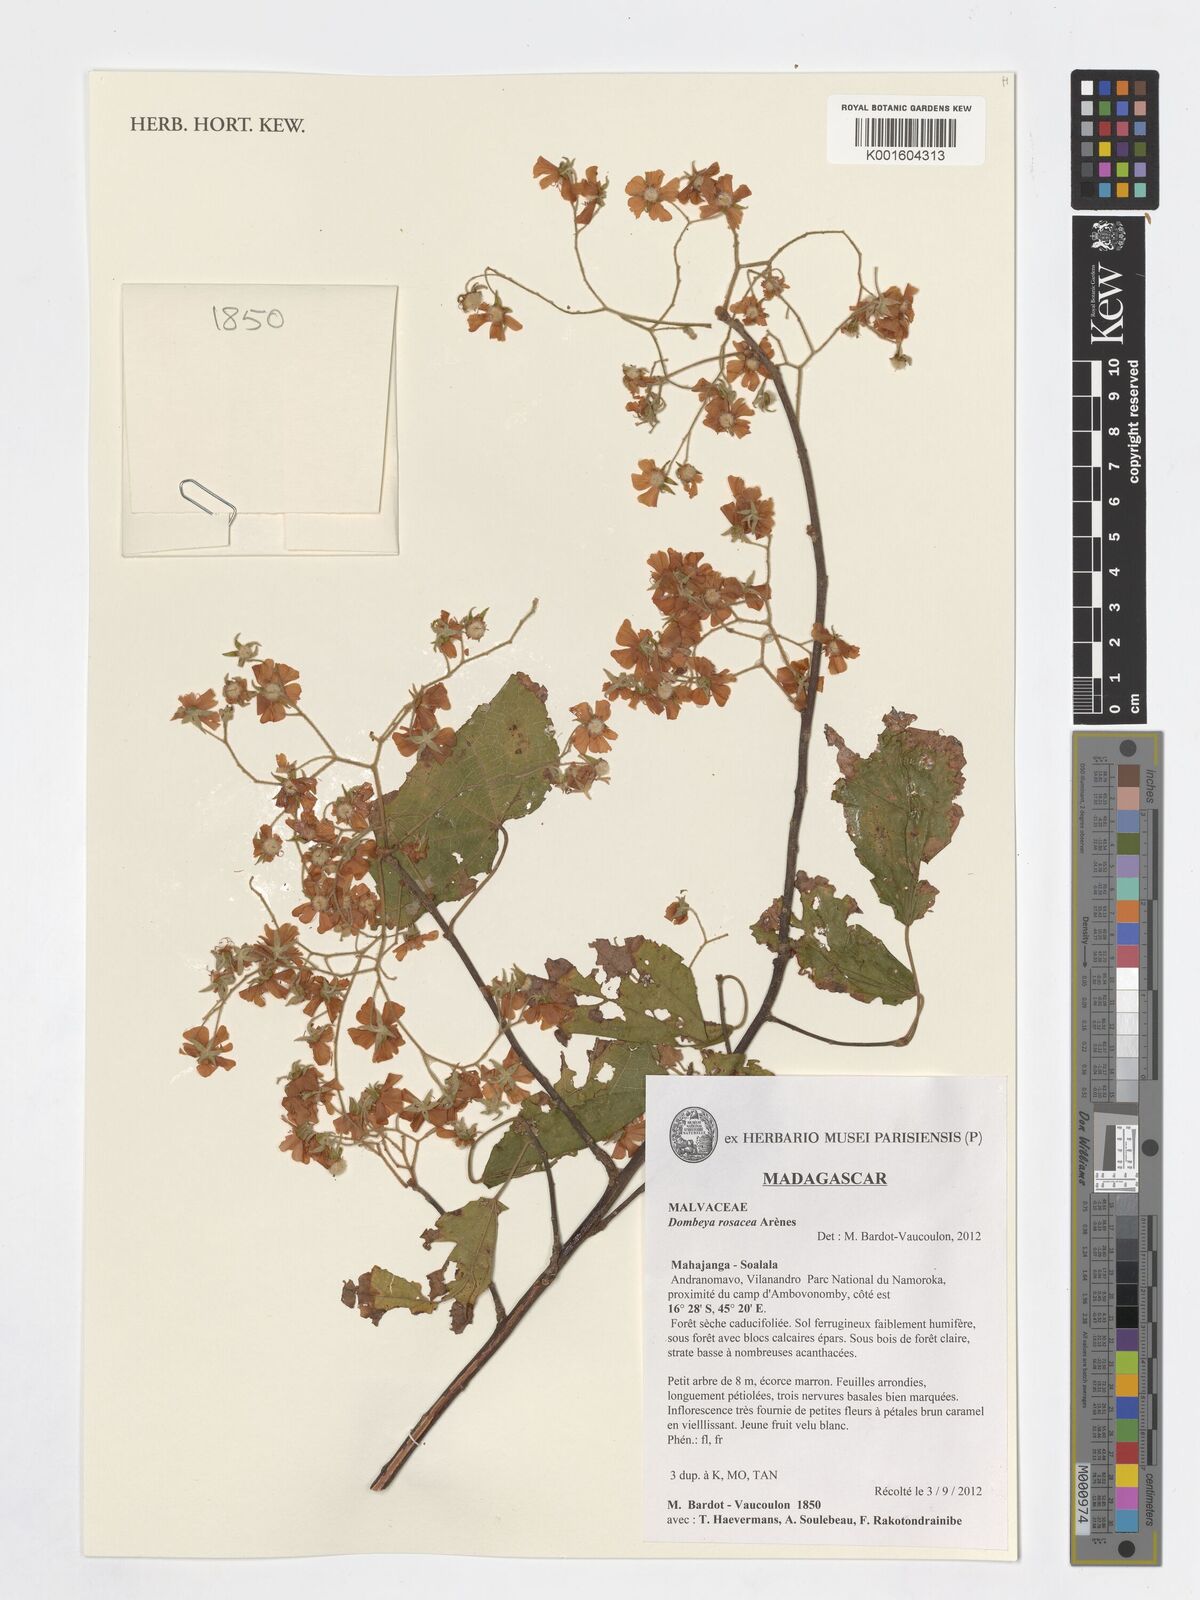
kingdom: Plantae
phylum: Tracheophyta
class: Magnoliopsida
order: Malvales
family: Malvaceae
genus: Dombeya
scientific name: Dombeya rosacea
